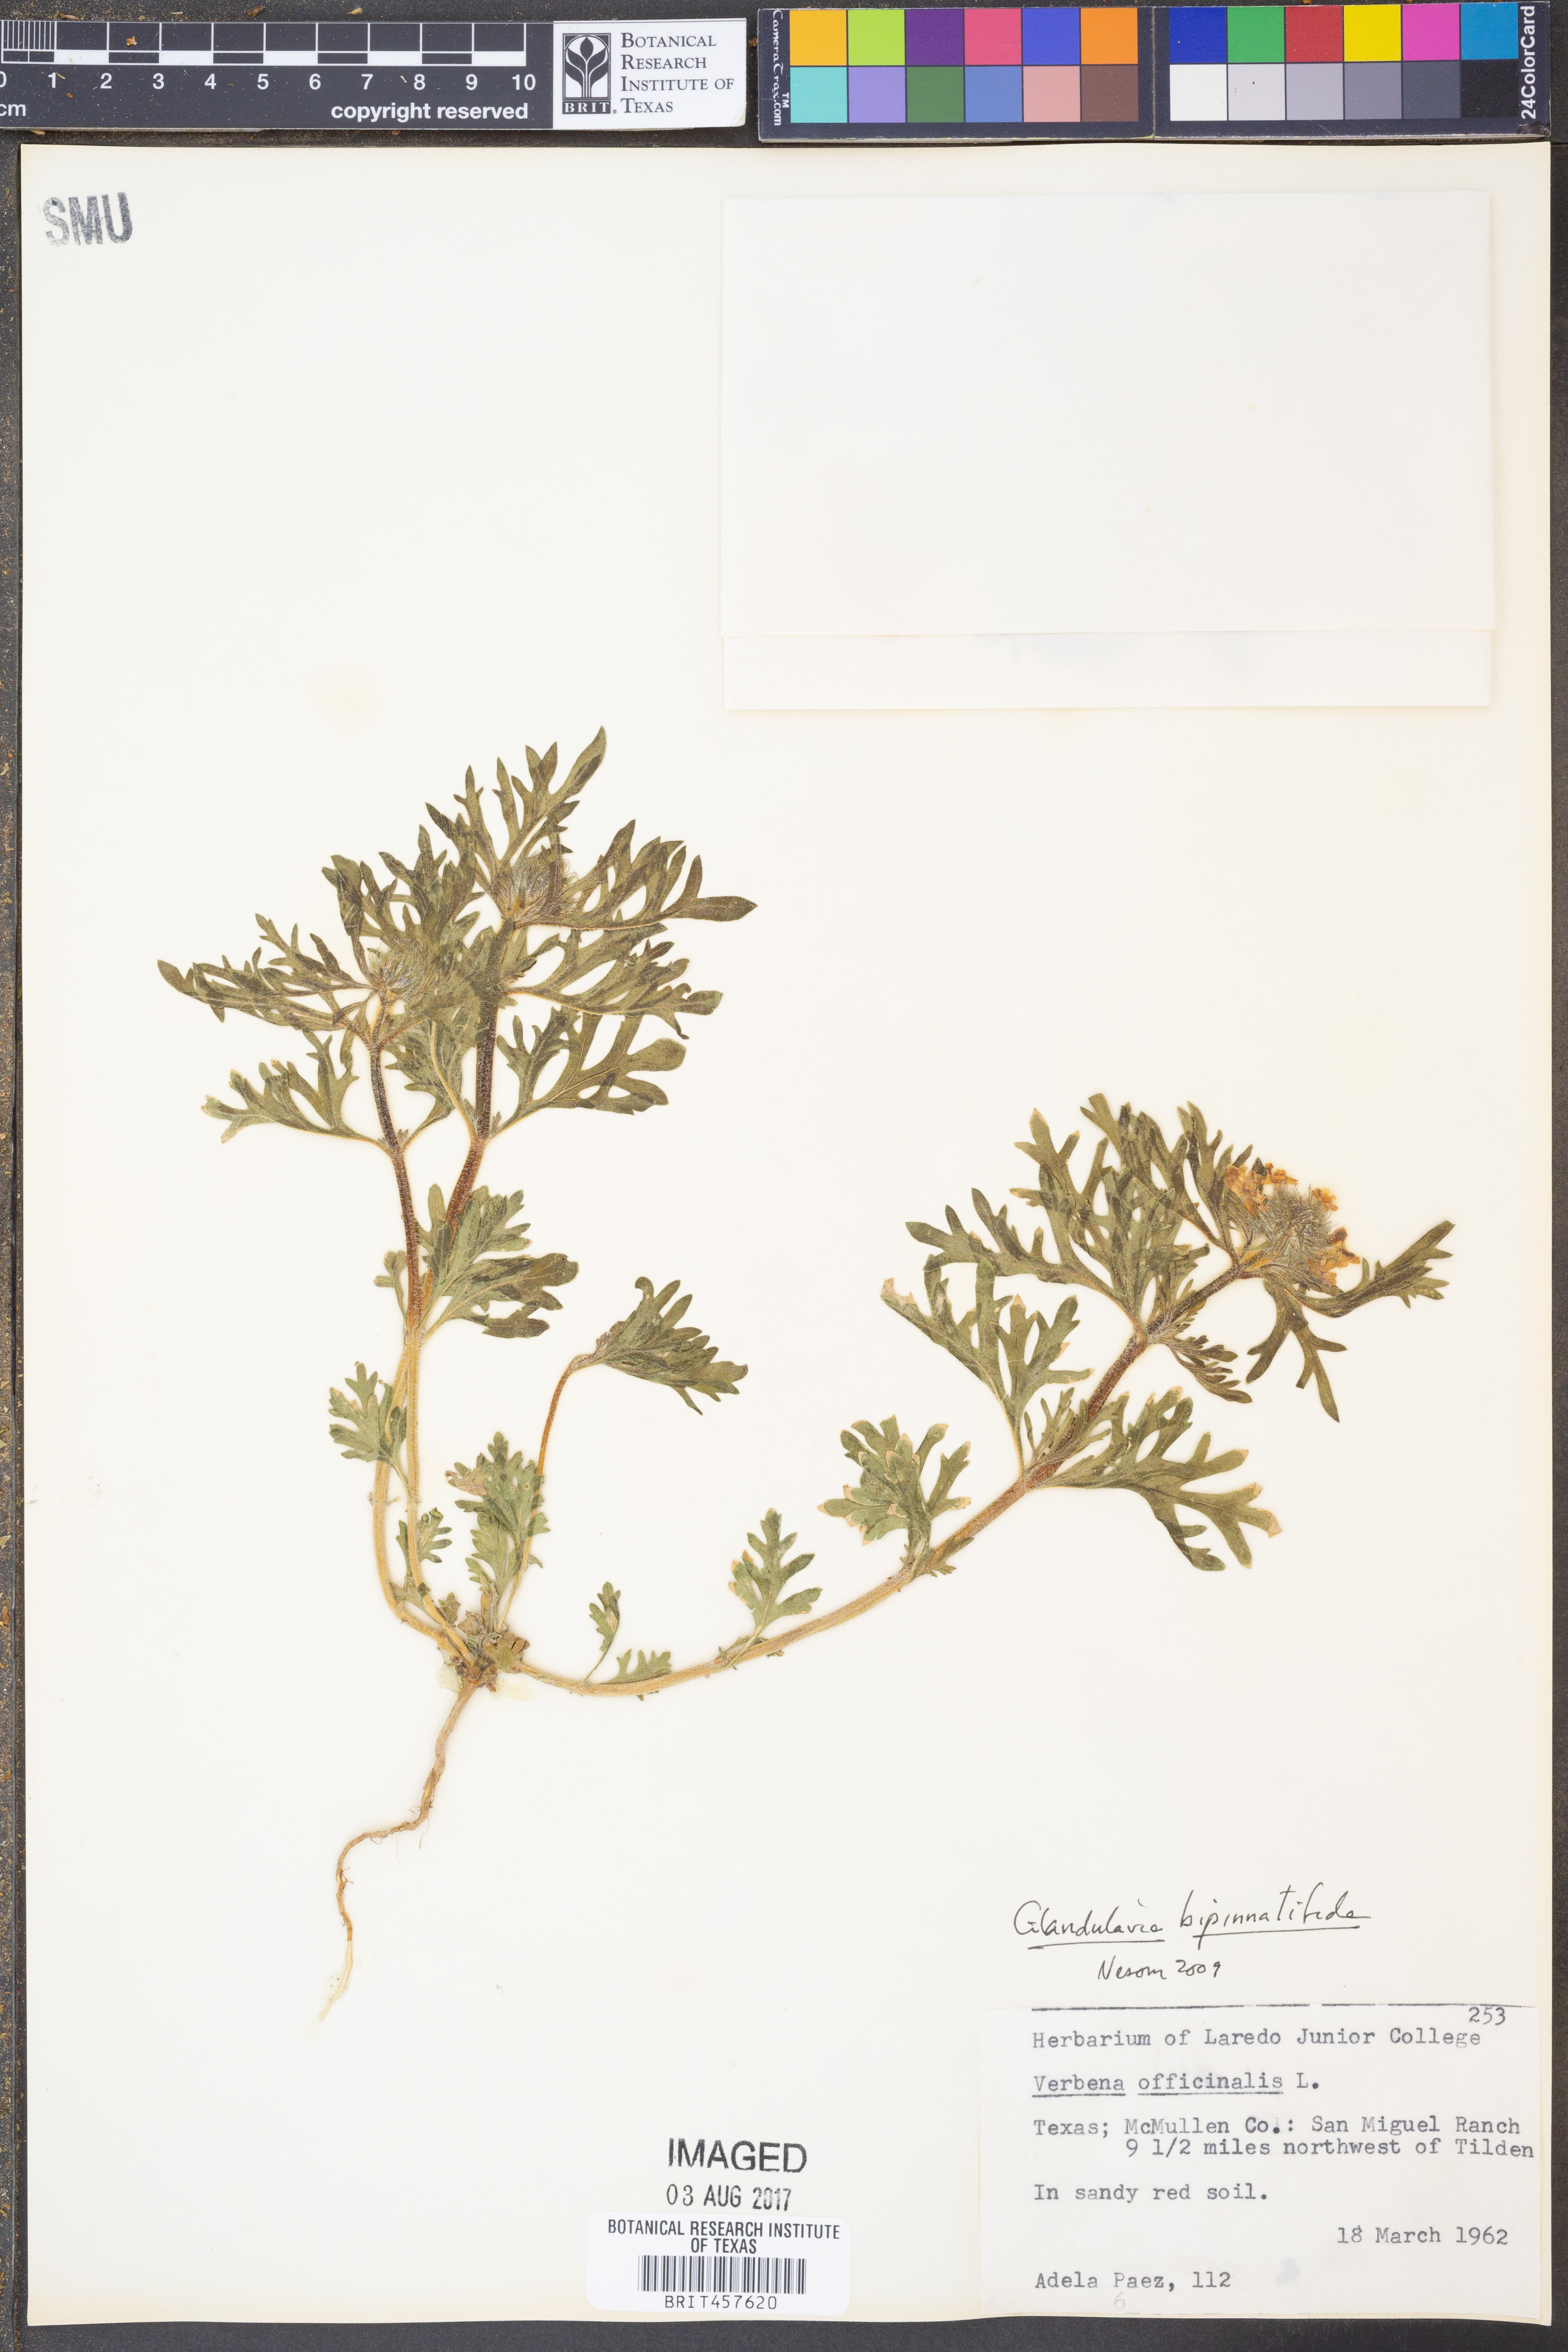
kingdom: Plantae
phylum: Tracheophyta
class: Magnoliopsida
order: Lamiales
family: Verbenaceae
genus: Verbena
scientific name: Verbena bipinnatifida
